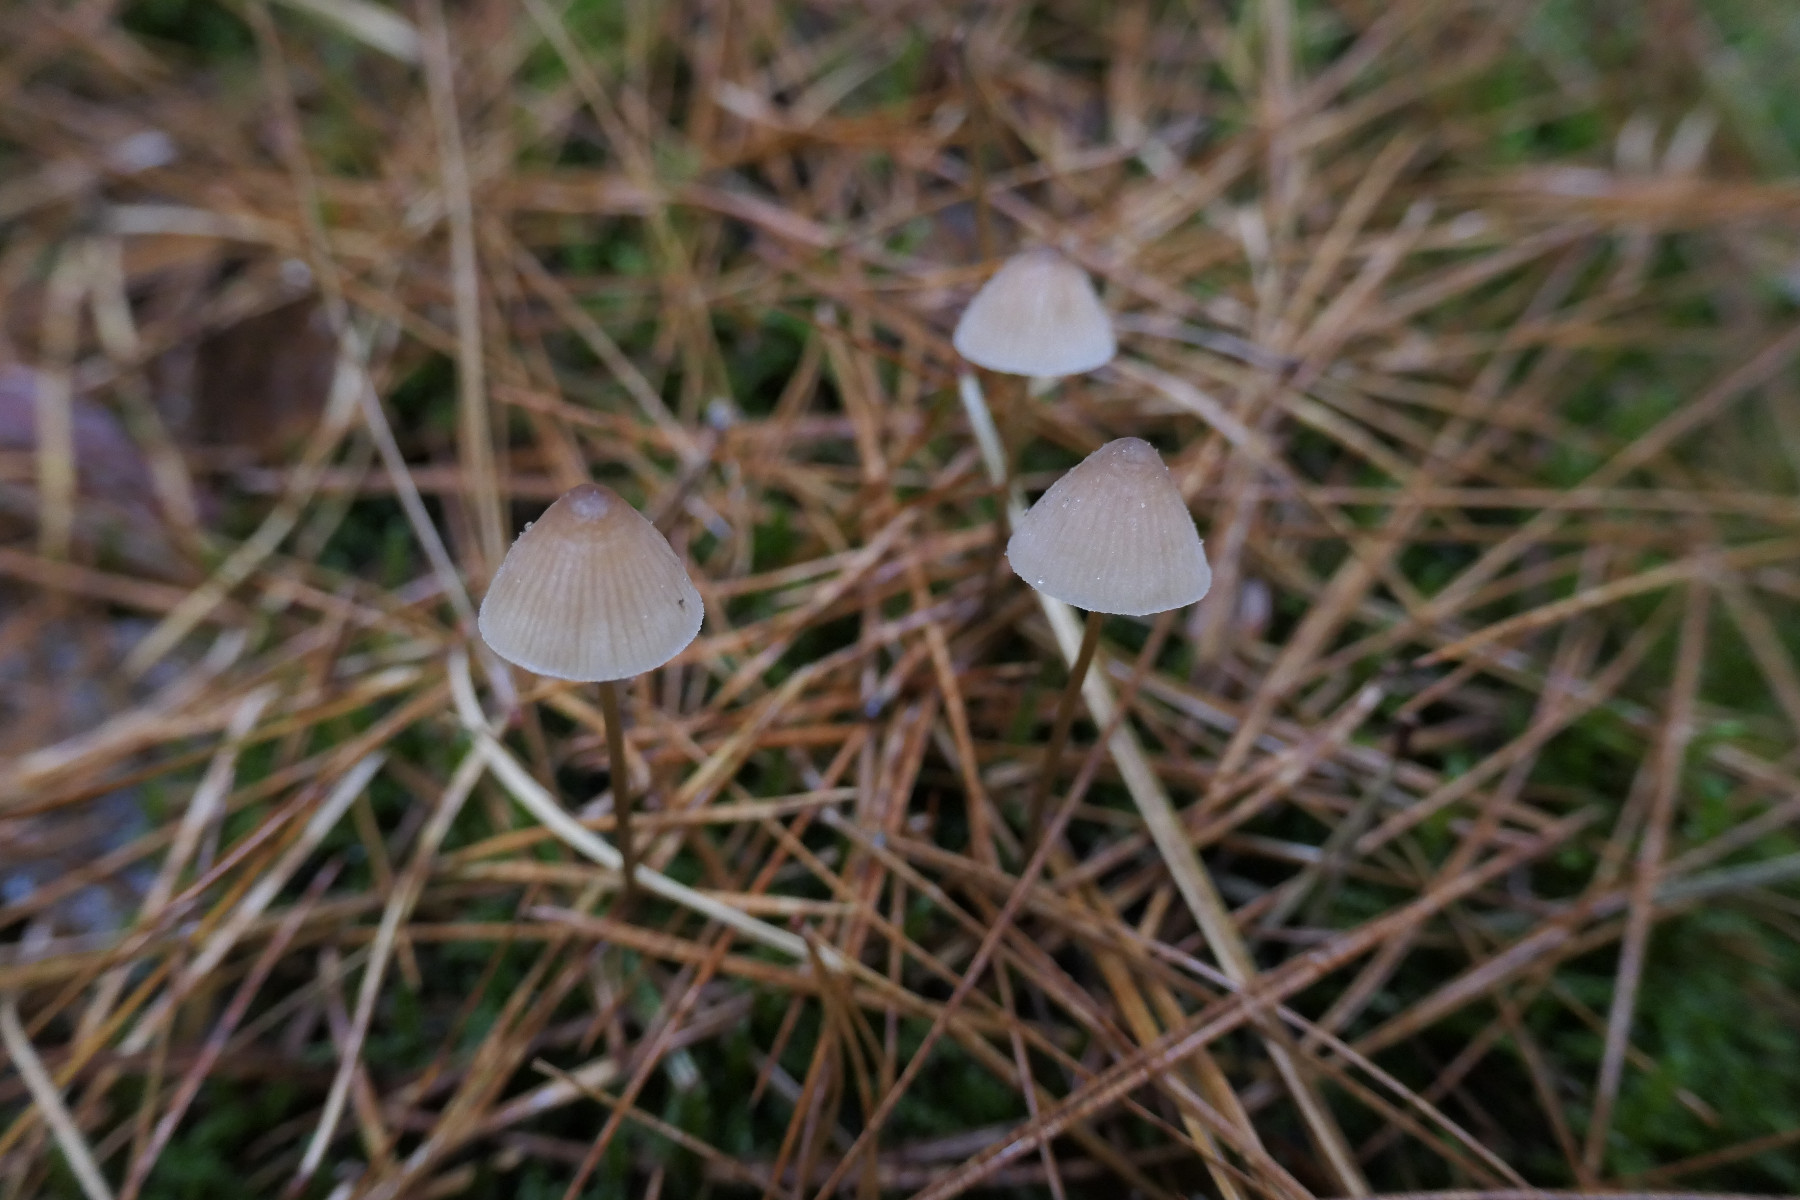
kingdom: Fungi
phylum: Basidiomycota
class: Agaricomycetes
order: Agaricales
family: Mycenaceae
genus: Mycena
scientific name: Mycena
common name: huesvamp
